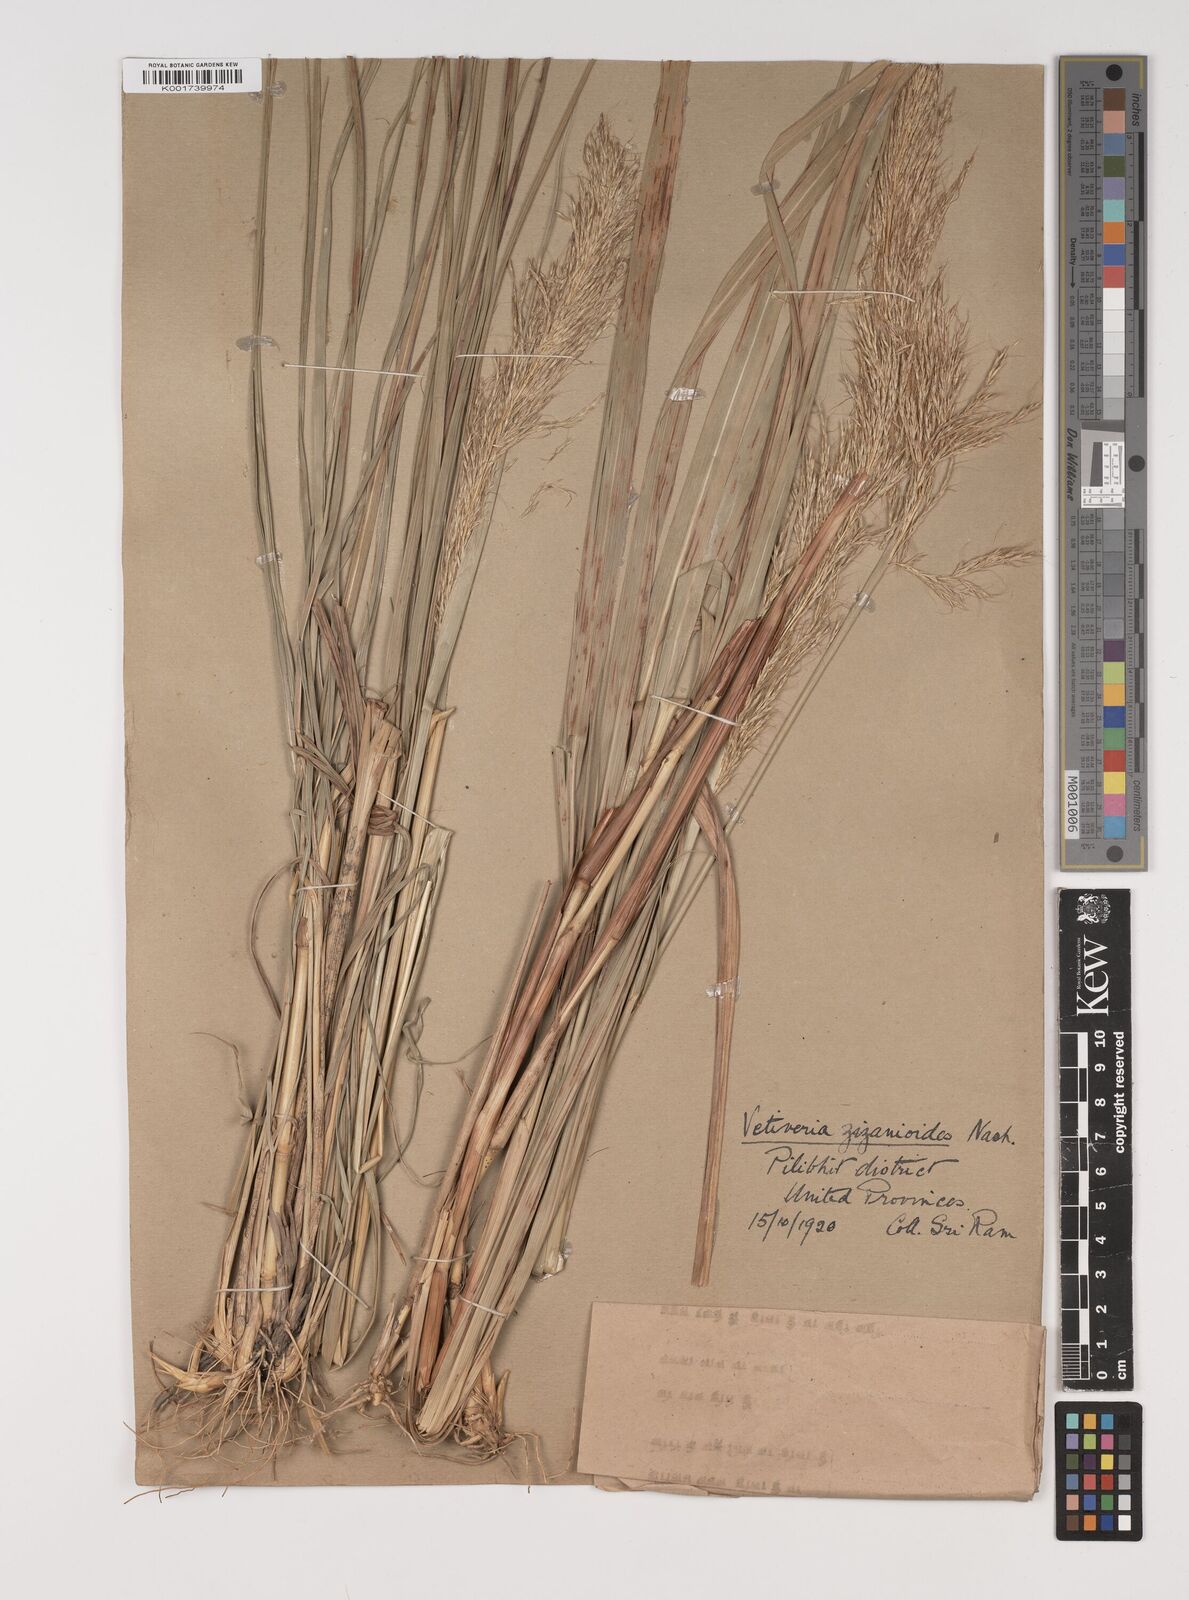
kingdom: Plantae
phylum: Tracheophyta
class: Liliopsida
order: Poales
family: Poaceae
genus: Bothriochloa
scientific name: Bothriochloa bladhii
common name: Caucasian bluestem
